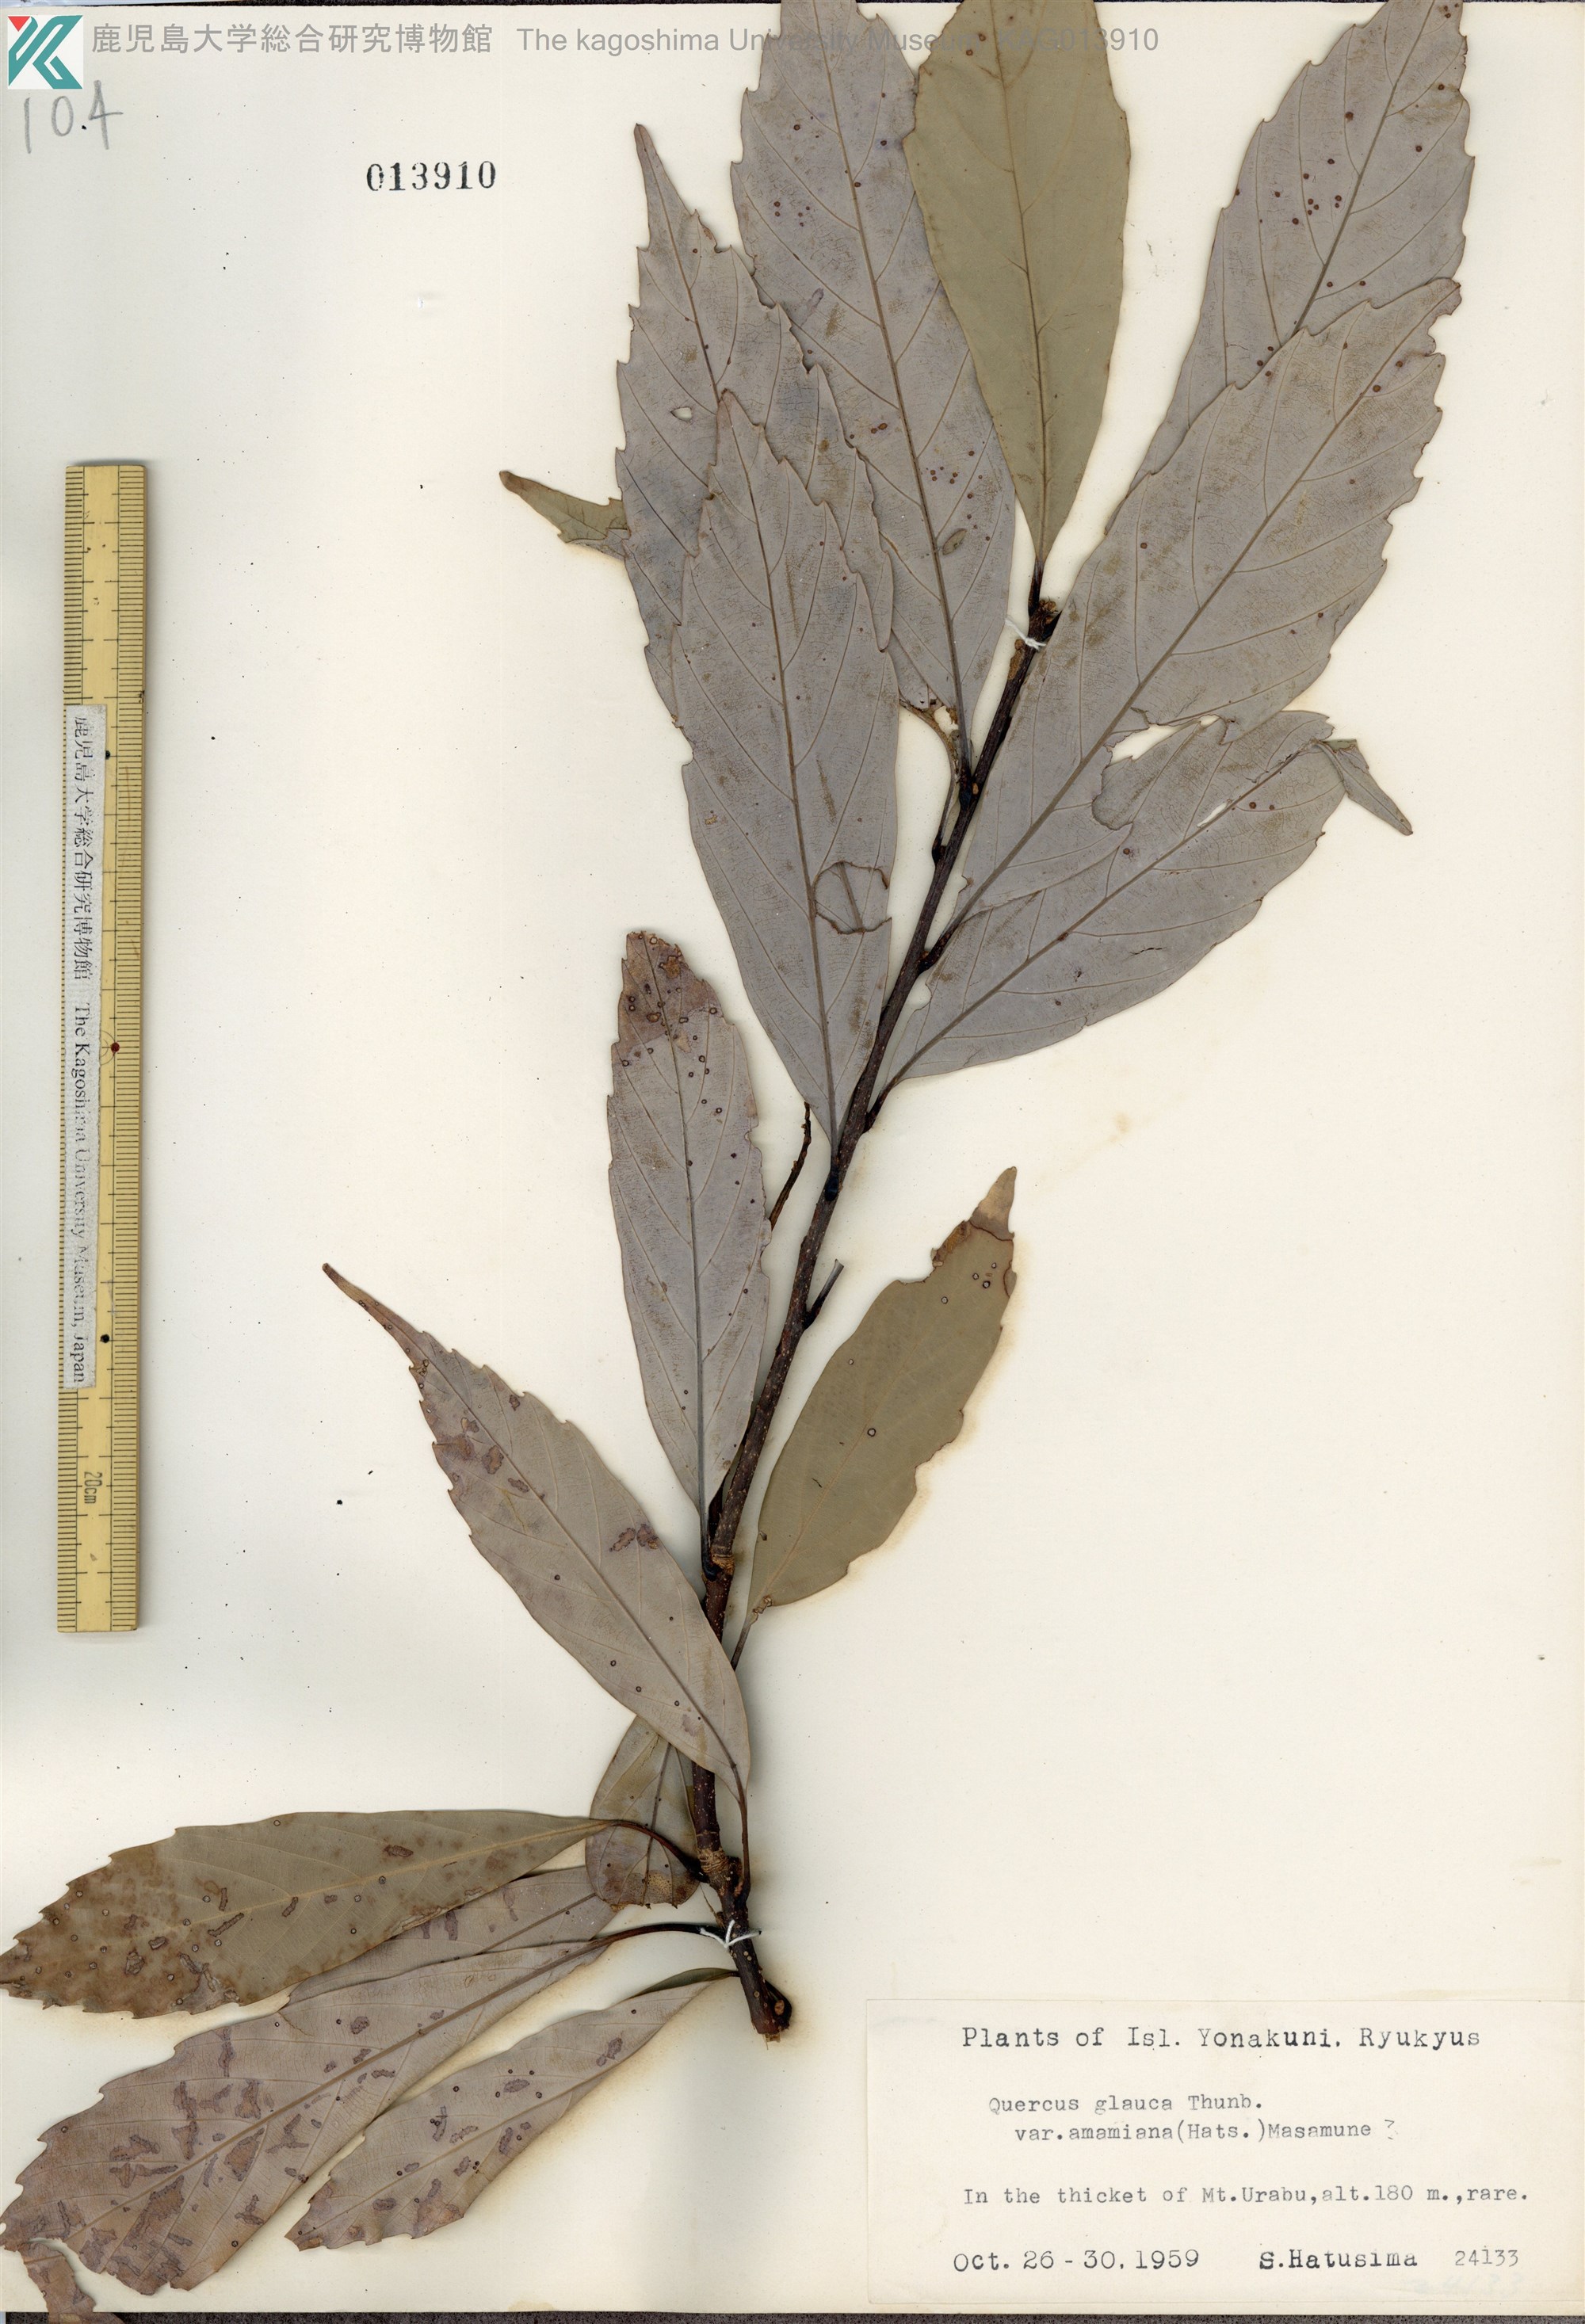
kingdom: Plantae
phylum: Tracheophyta
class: Magnoliopsida
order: Fagales
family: Fagaceae
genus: Quercus
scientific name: Quercus glauca
